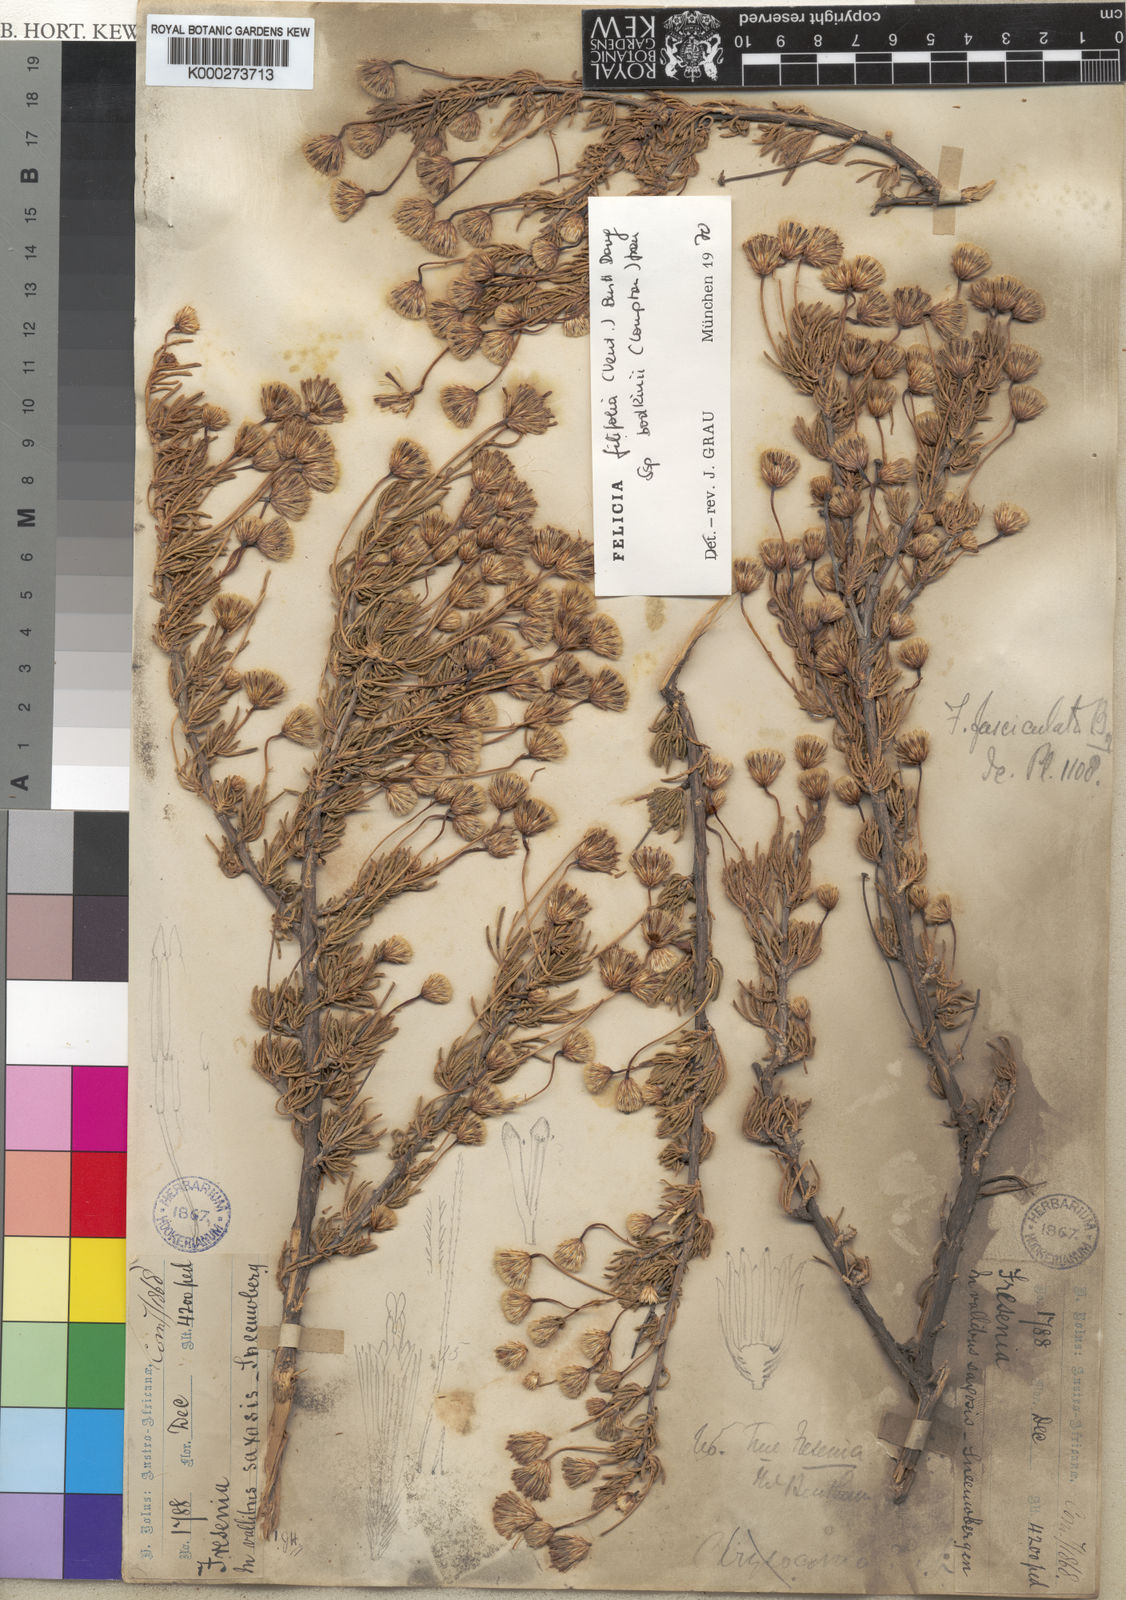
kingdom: Plantae
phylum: Tracheophyta
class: Magnoliopsida
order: Asterales
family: Asteraceae
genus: Felicia
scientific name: Felicia
